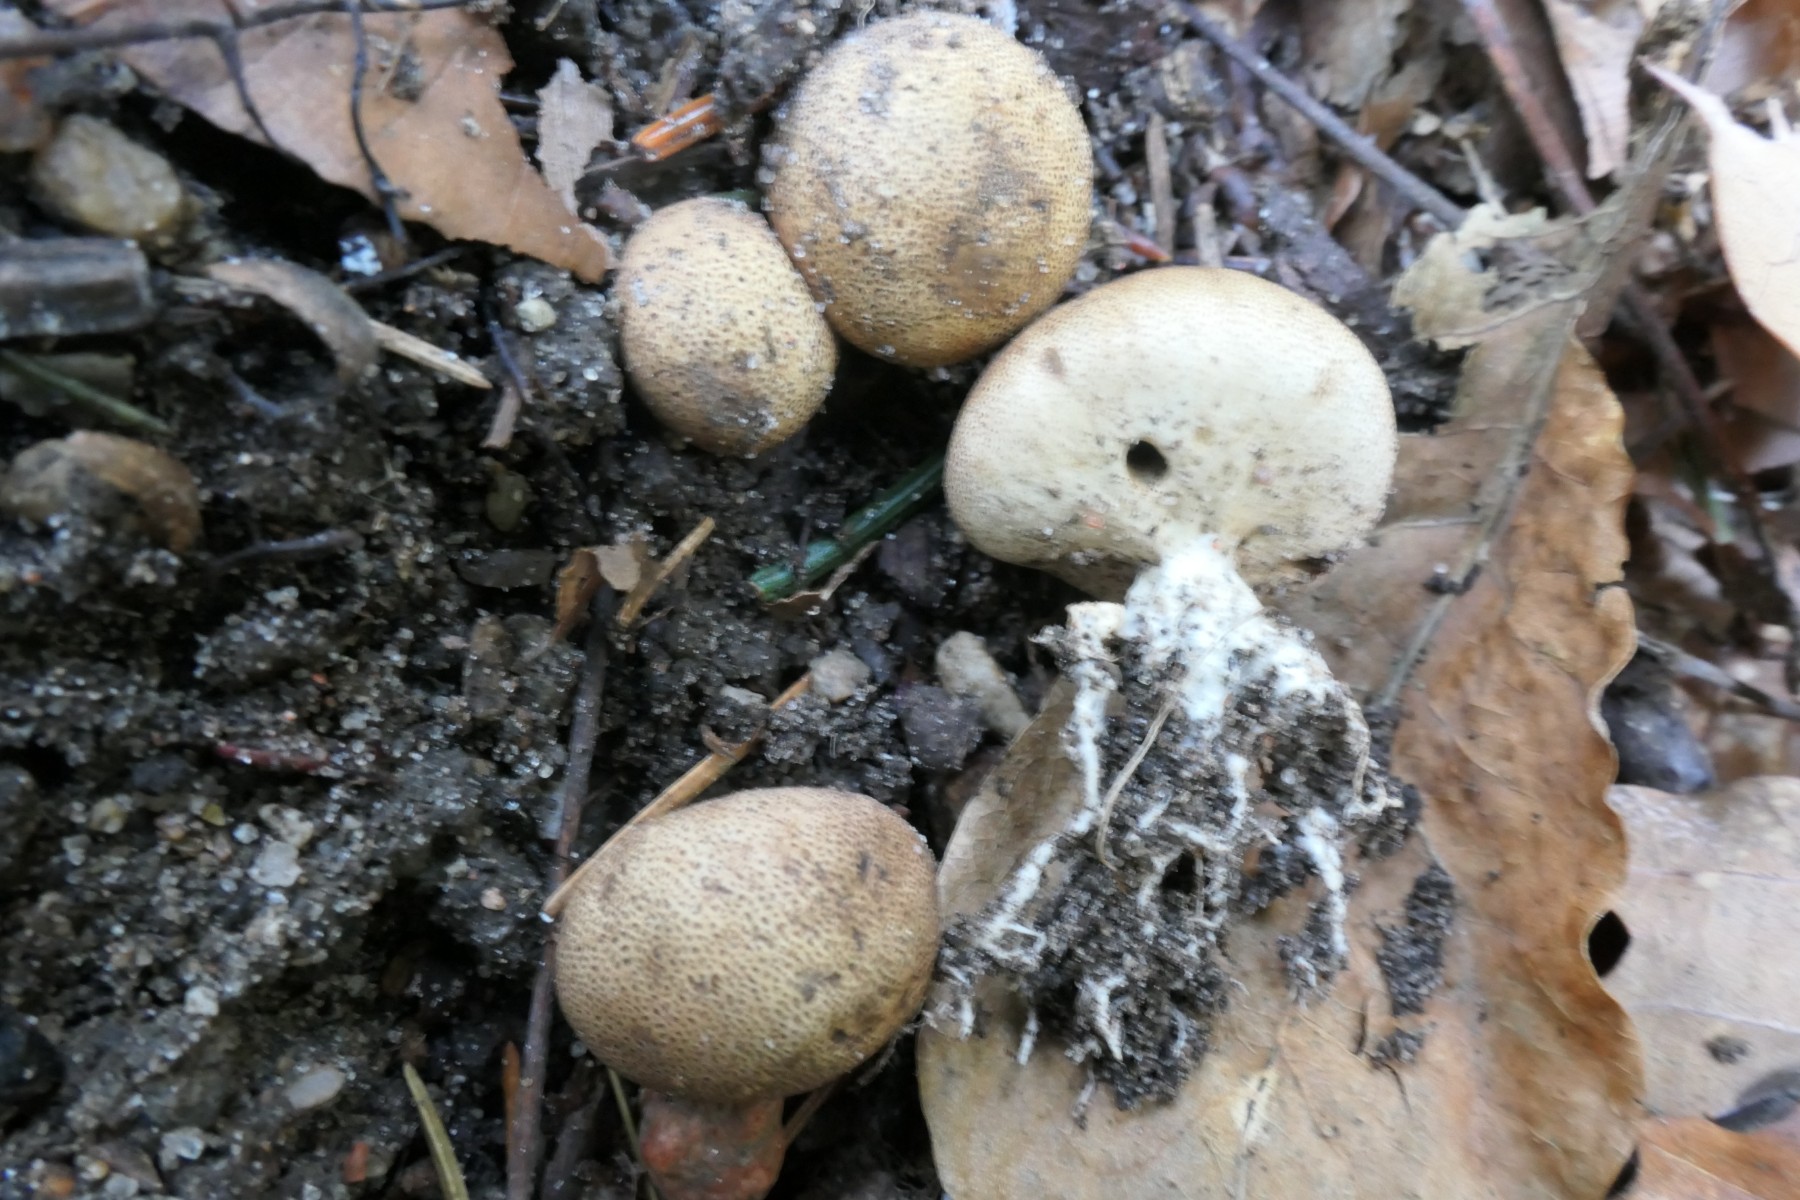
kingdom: Fungi
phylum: Basidiomycota
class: Agaricomycetes
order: Boletales
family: Sclerodermataceae
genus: Scleroderma
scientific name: Scleroderma verrucosum
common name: stilket bruskbold
